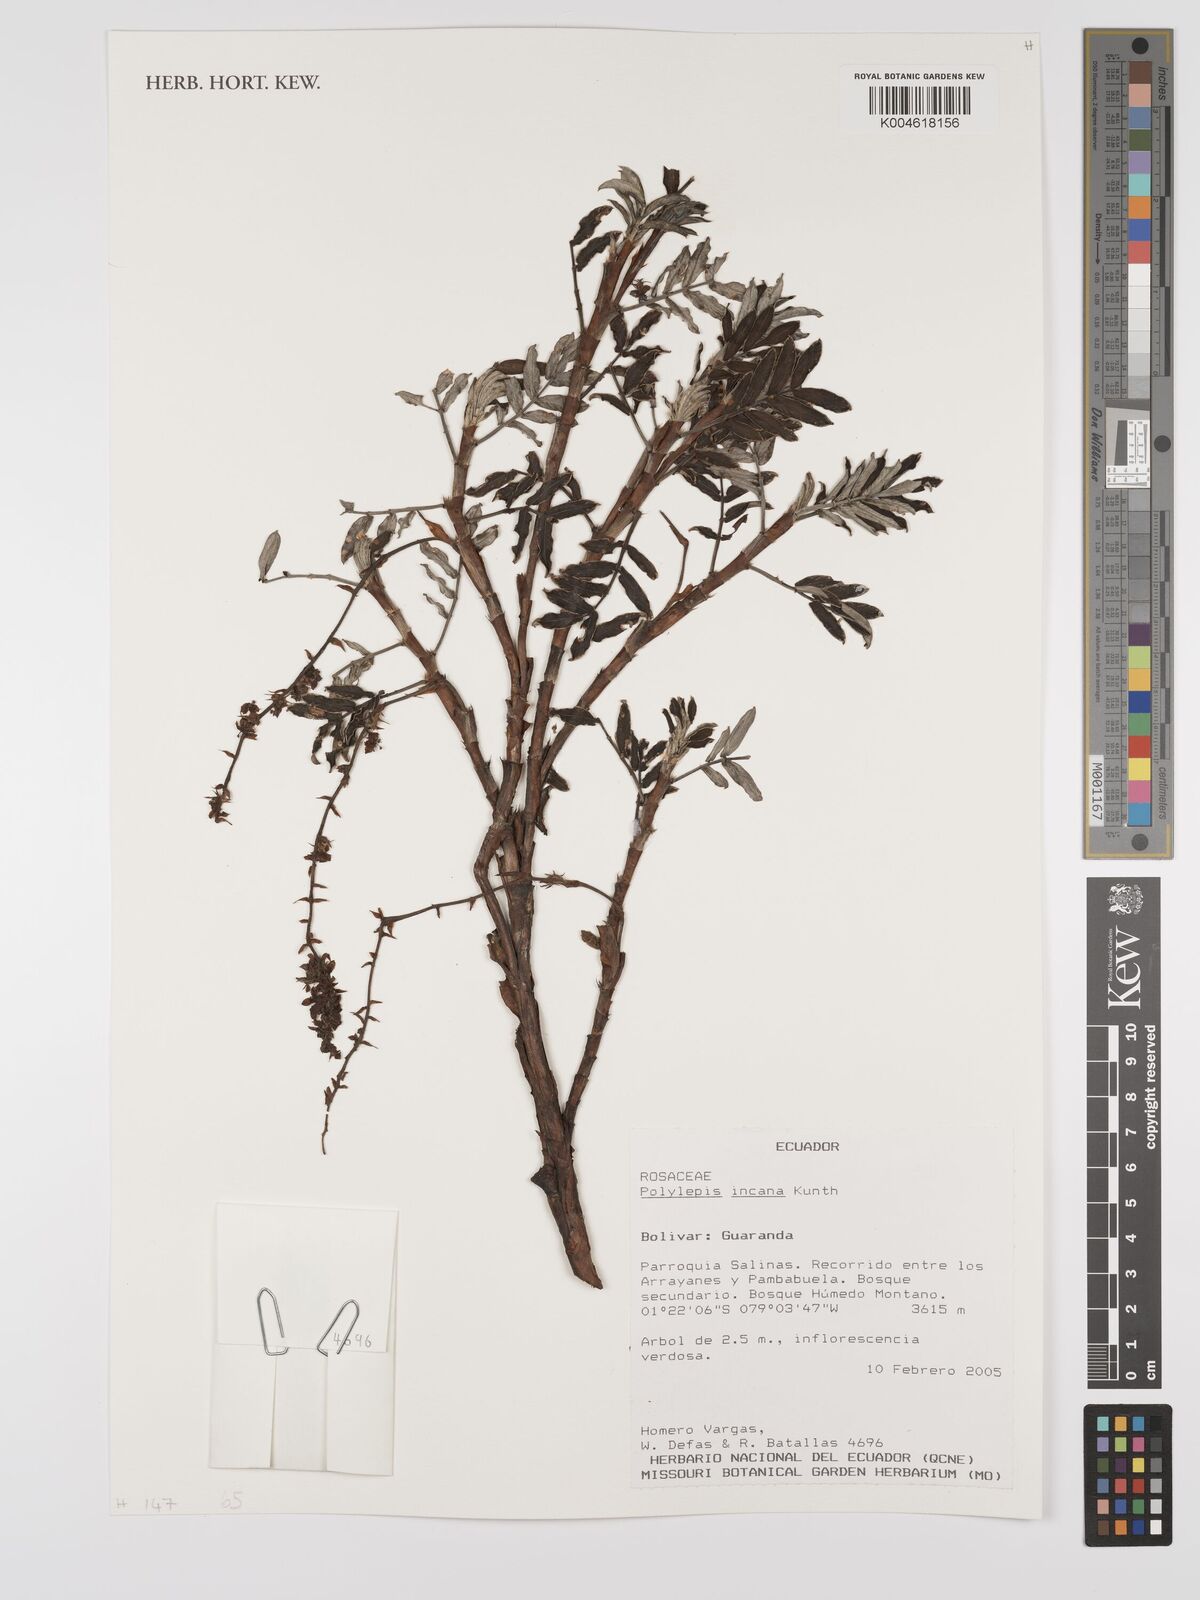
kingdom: Plantae
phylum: Tracheophyta
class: Magnoliopsida
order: Rosales
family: Rosaceae
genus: Polylepis
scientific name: Polylepis incana
